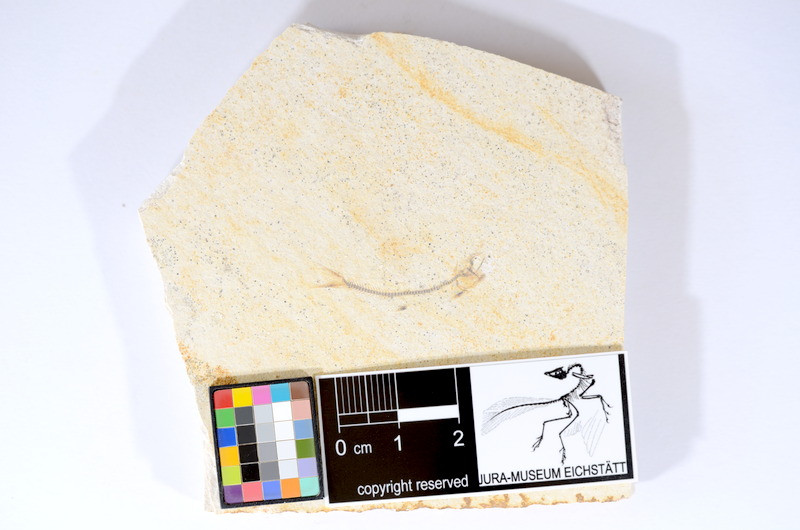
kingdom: Animalia
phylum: Chordata
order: Salmoniformes
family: Orthogonikleithridae
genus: Orthogonikleithrus
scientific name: Orthogonikleithrus hoelli
